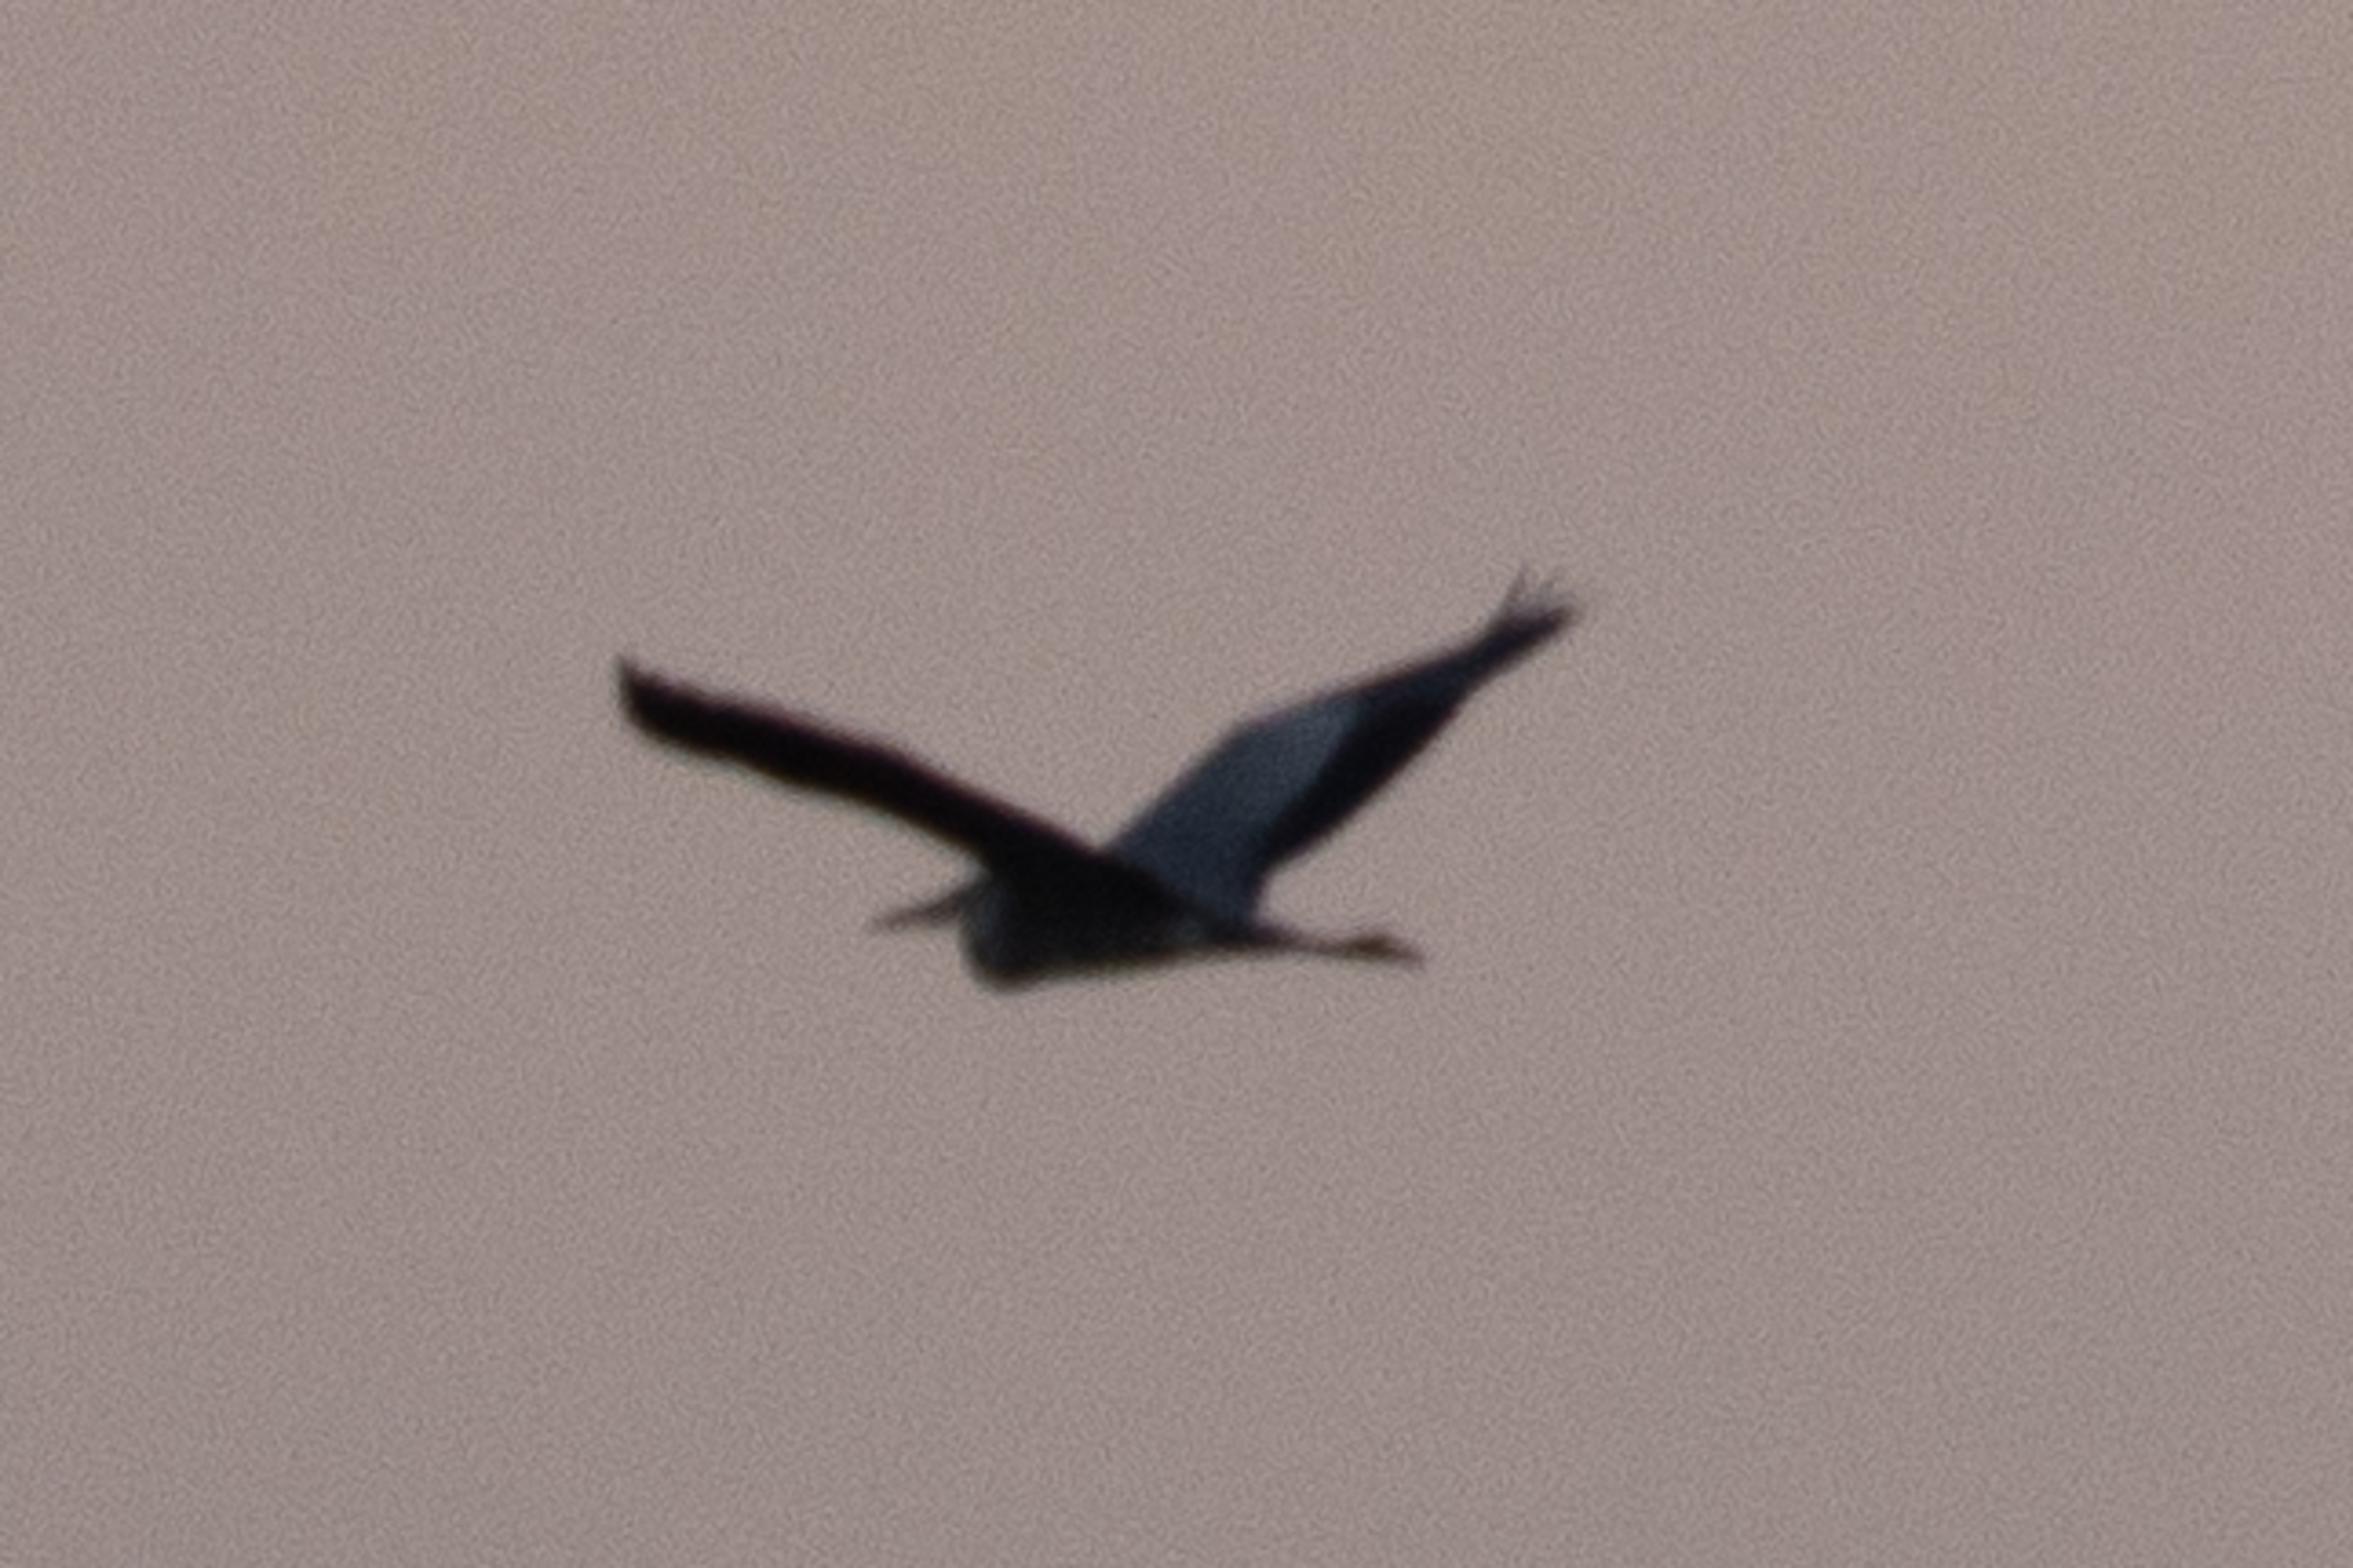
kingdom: Animalia
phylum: Chordata
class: Aves
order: Pelecaniformes
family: Ardeidae
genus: Ardea
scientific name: Ardea cinerea
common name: Fiskehejre
